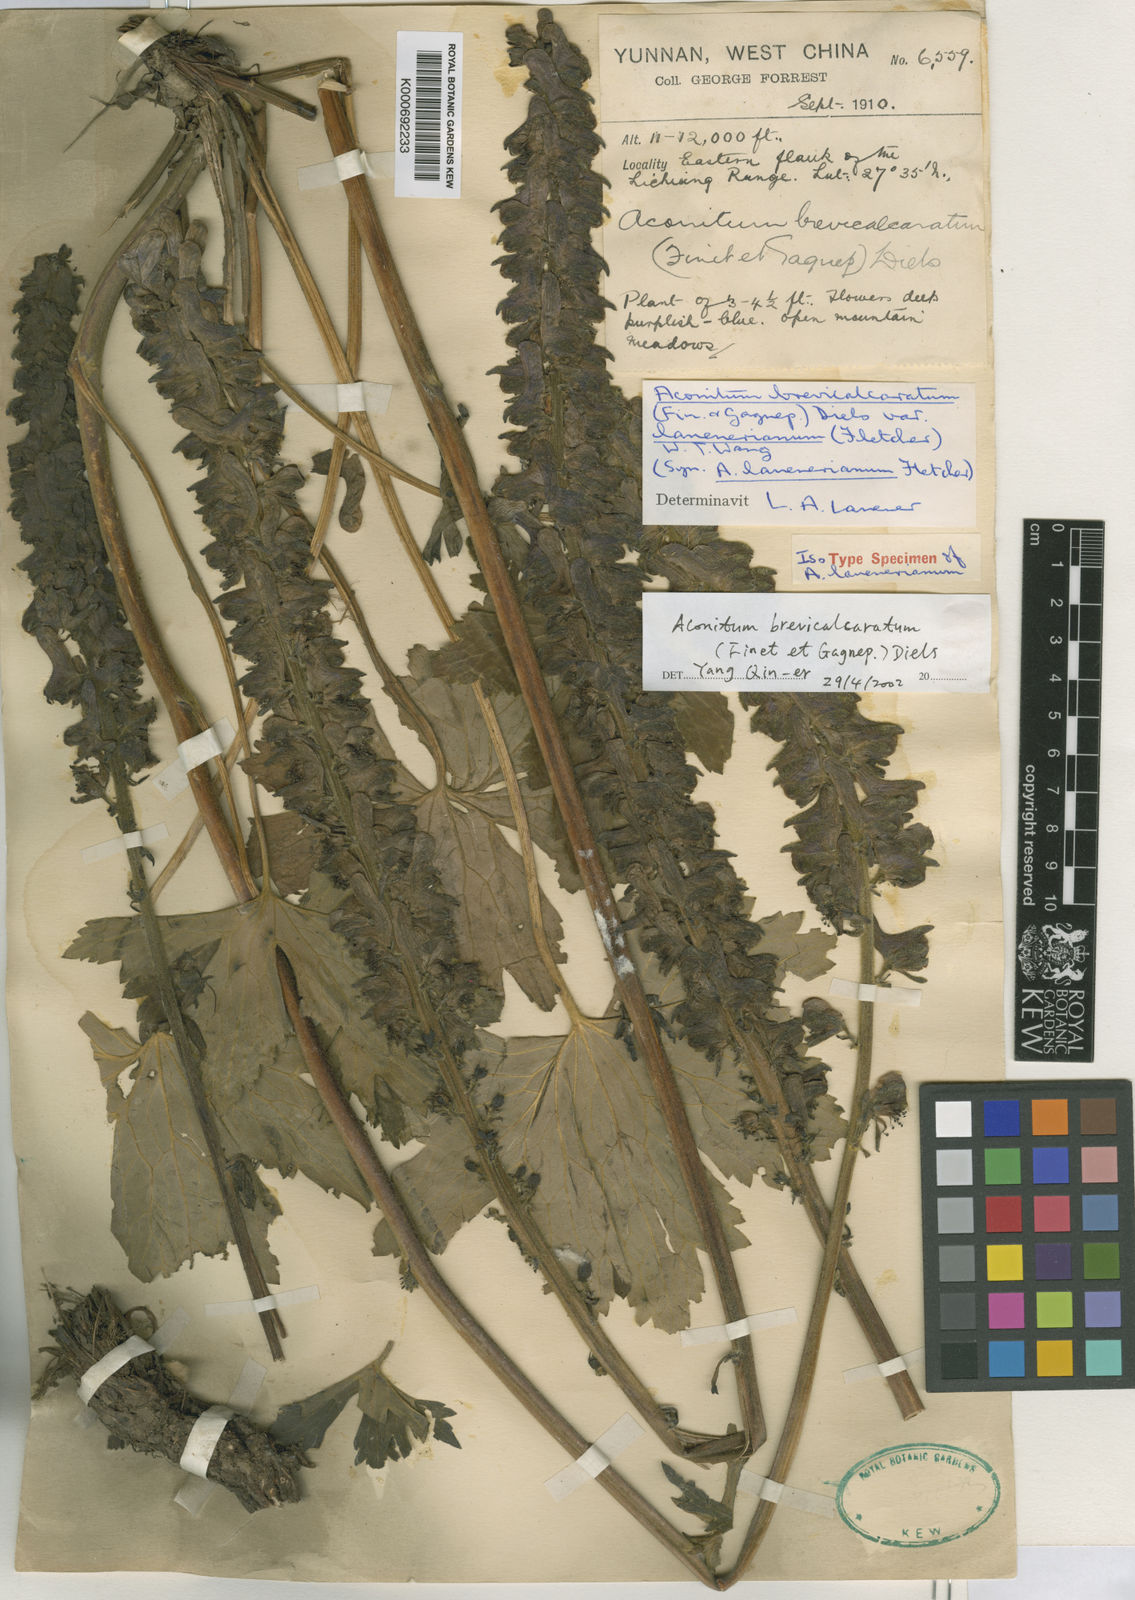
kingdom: Plantae
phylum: Tracheophyta
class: Magnoliopsida
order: Ranunculales
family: Ranunculaceae
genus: Aconitum
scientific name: Aconitum brevicalcaratum
